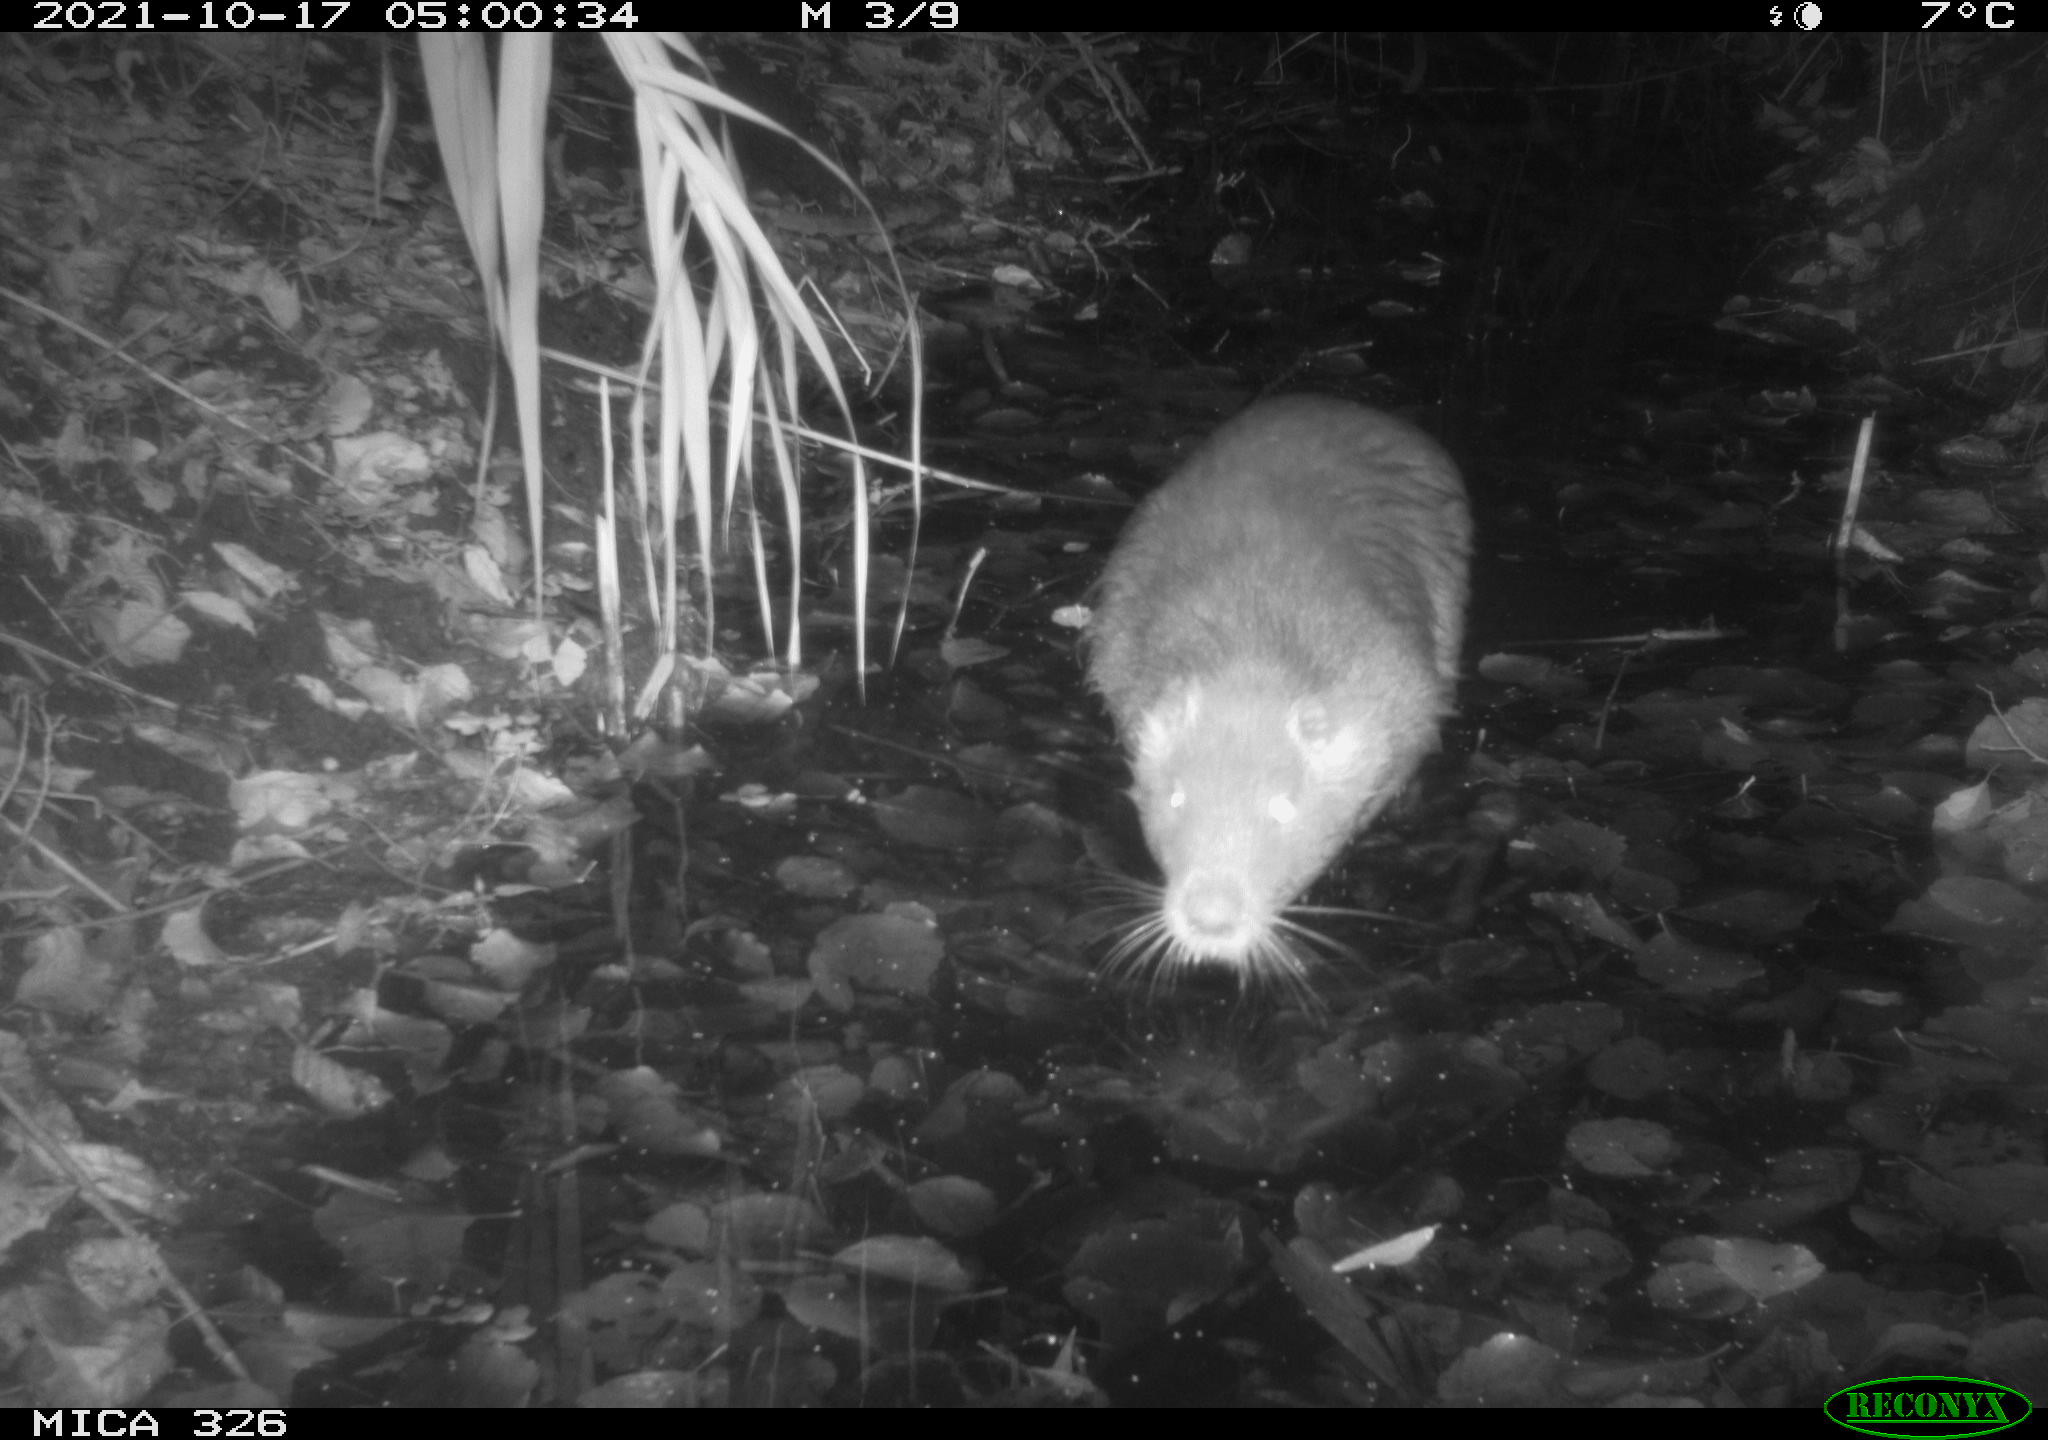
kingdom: Animalia
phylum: Chordata
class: Mammalia
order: Rodentia
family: Myocastoridae
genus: Myocastor
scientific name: Myocastor coypus
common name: Coypu
